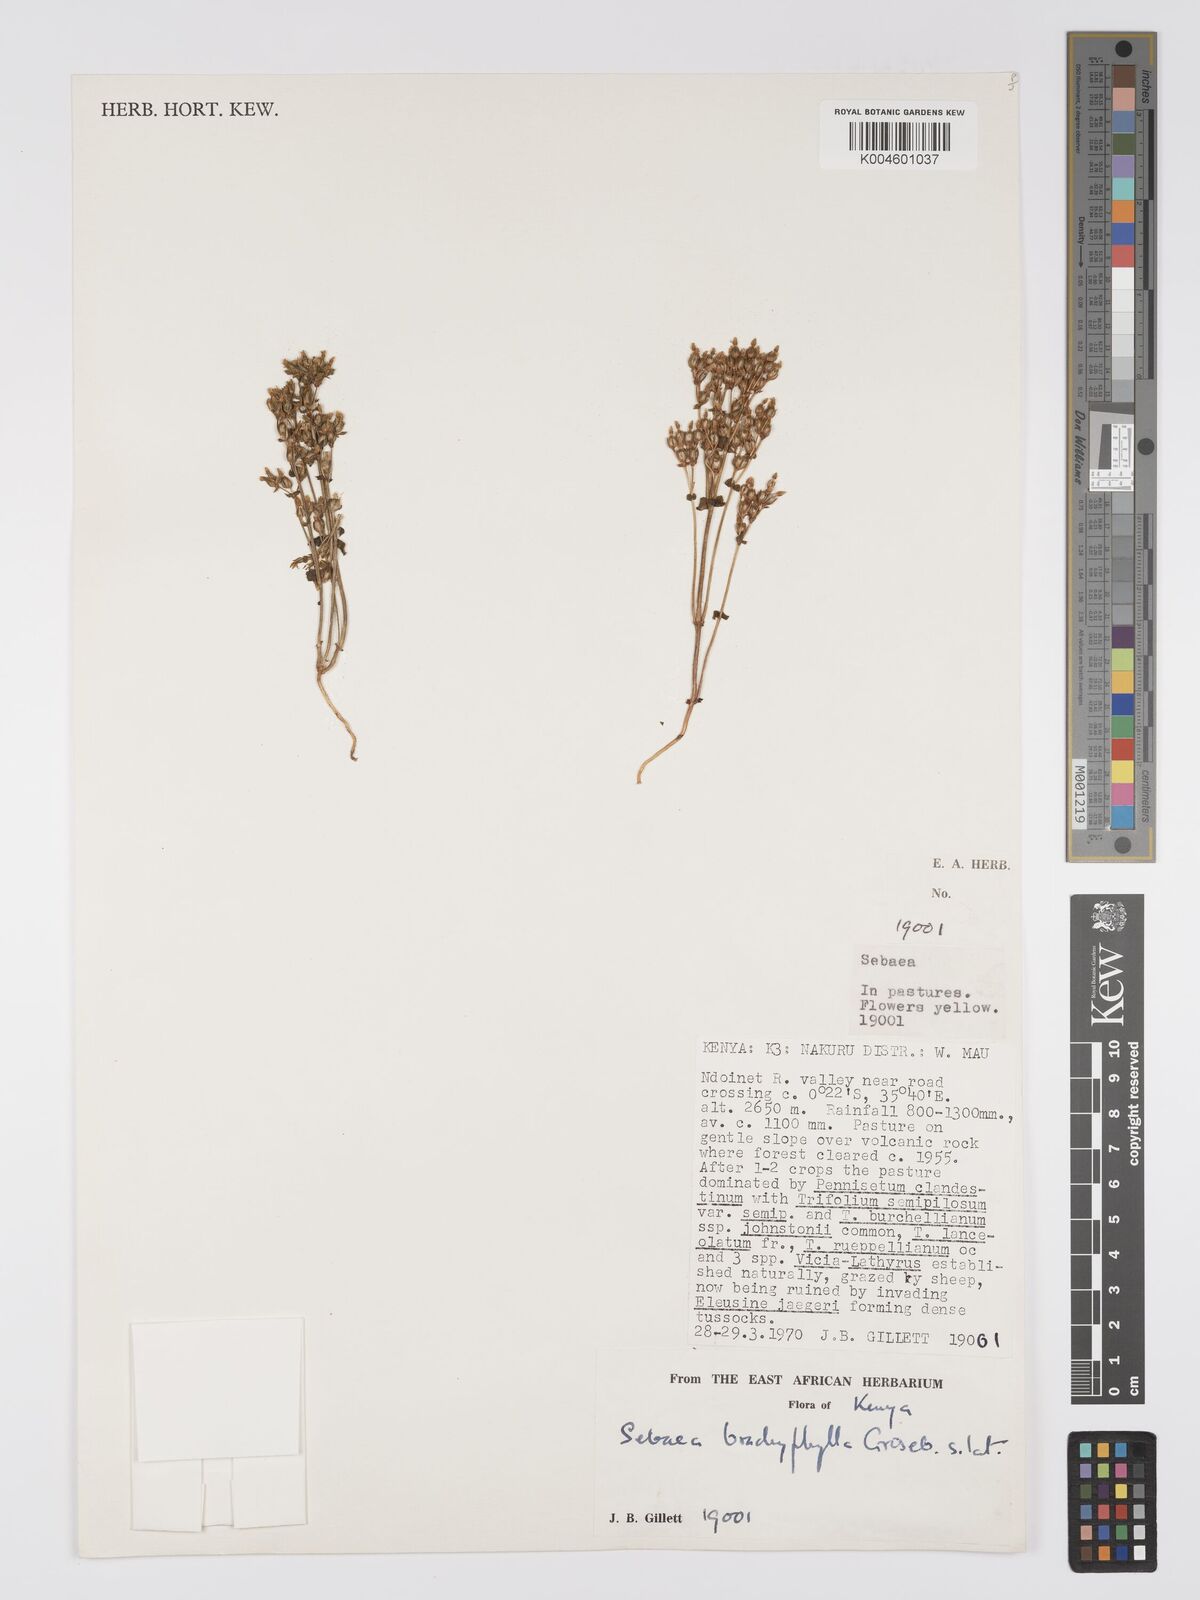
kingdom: Plantae
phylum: Tracheophyta
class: Magnoliopsida
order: Gentianales
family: Gentianaceae
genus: Sebaea
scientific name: Sebaea brachyphylla
